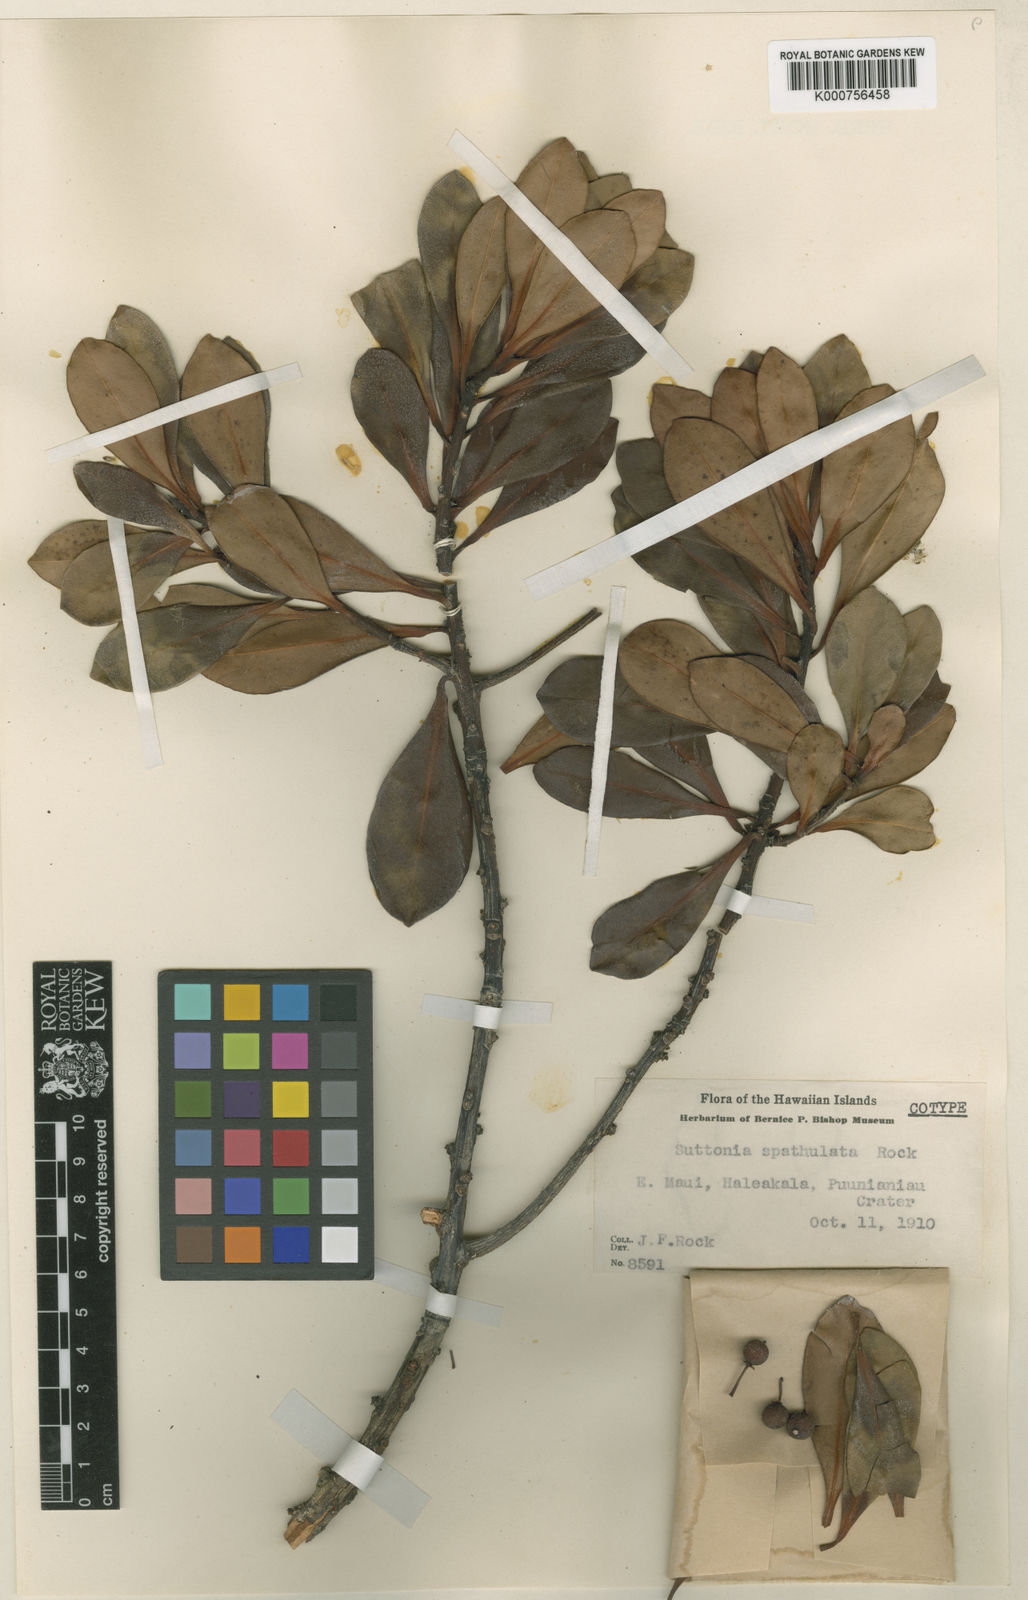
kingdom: Plantae
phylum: Tracheophyta
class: Magnoliopsida
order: Ericales
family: Primulaceae
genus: Myrsine
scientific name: Myrsine
